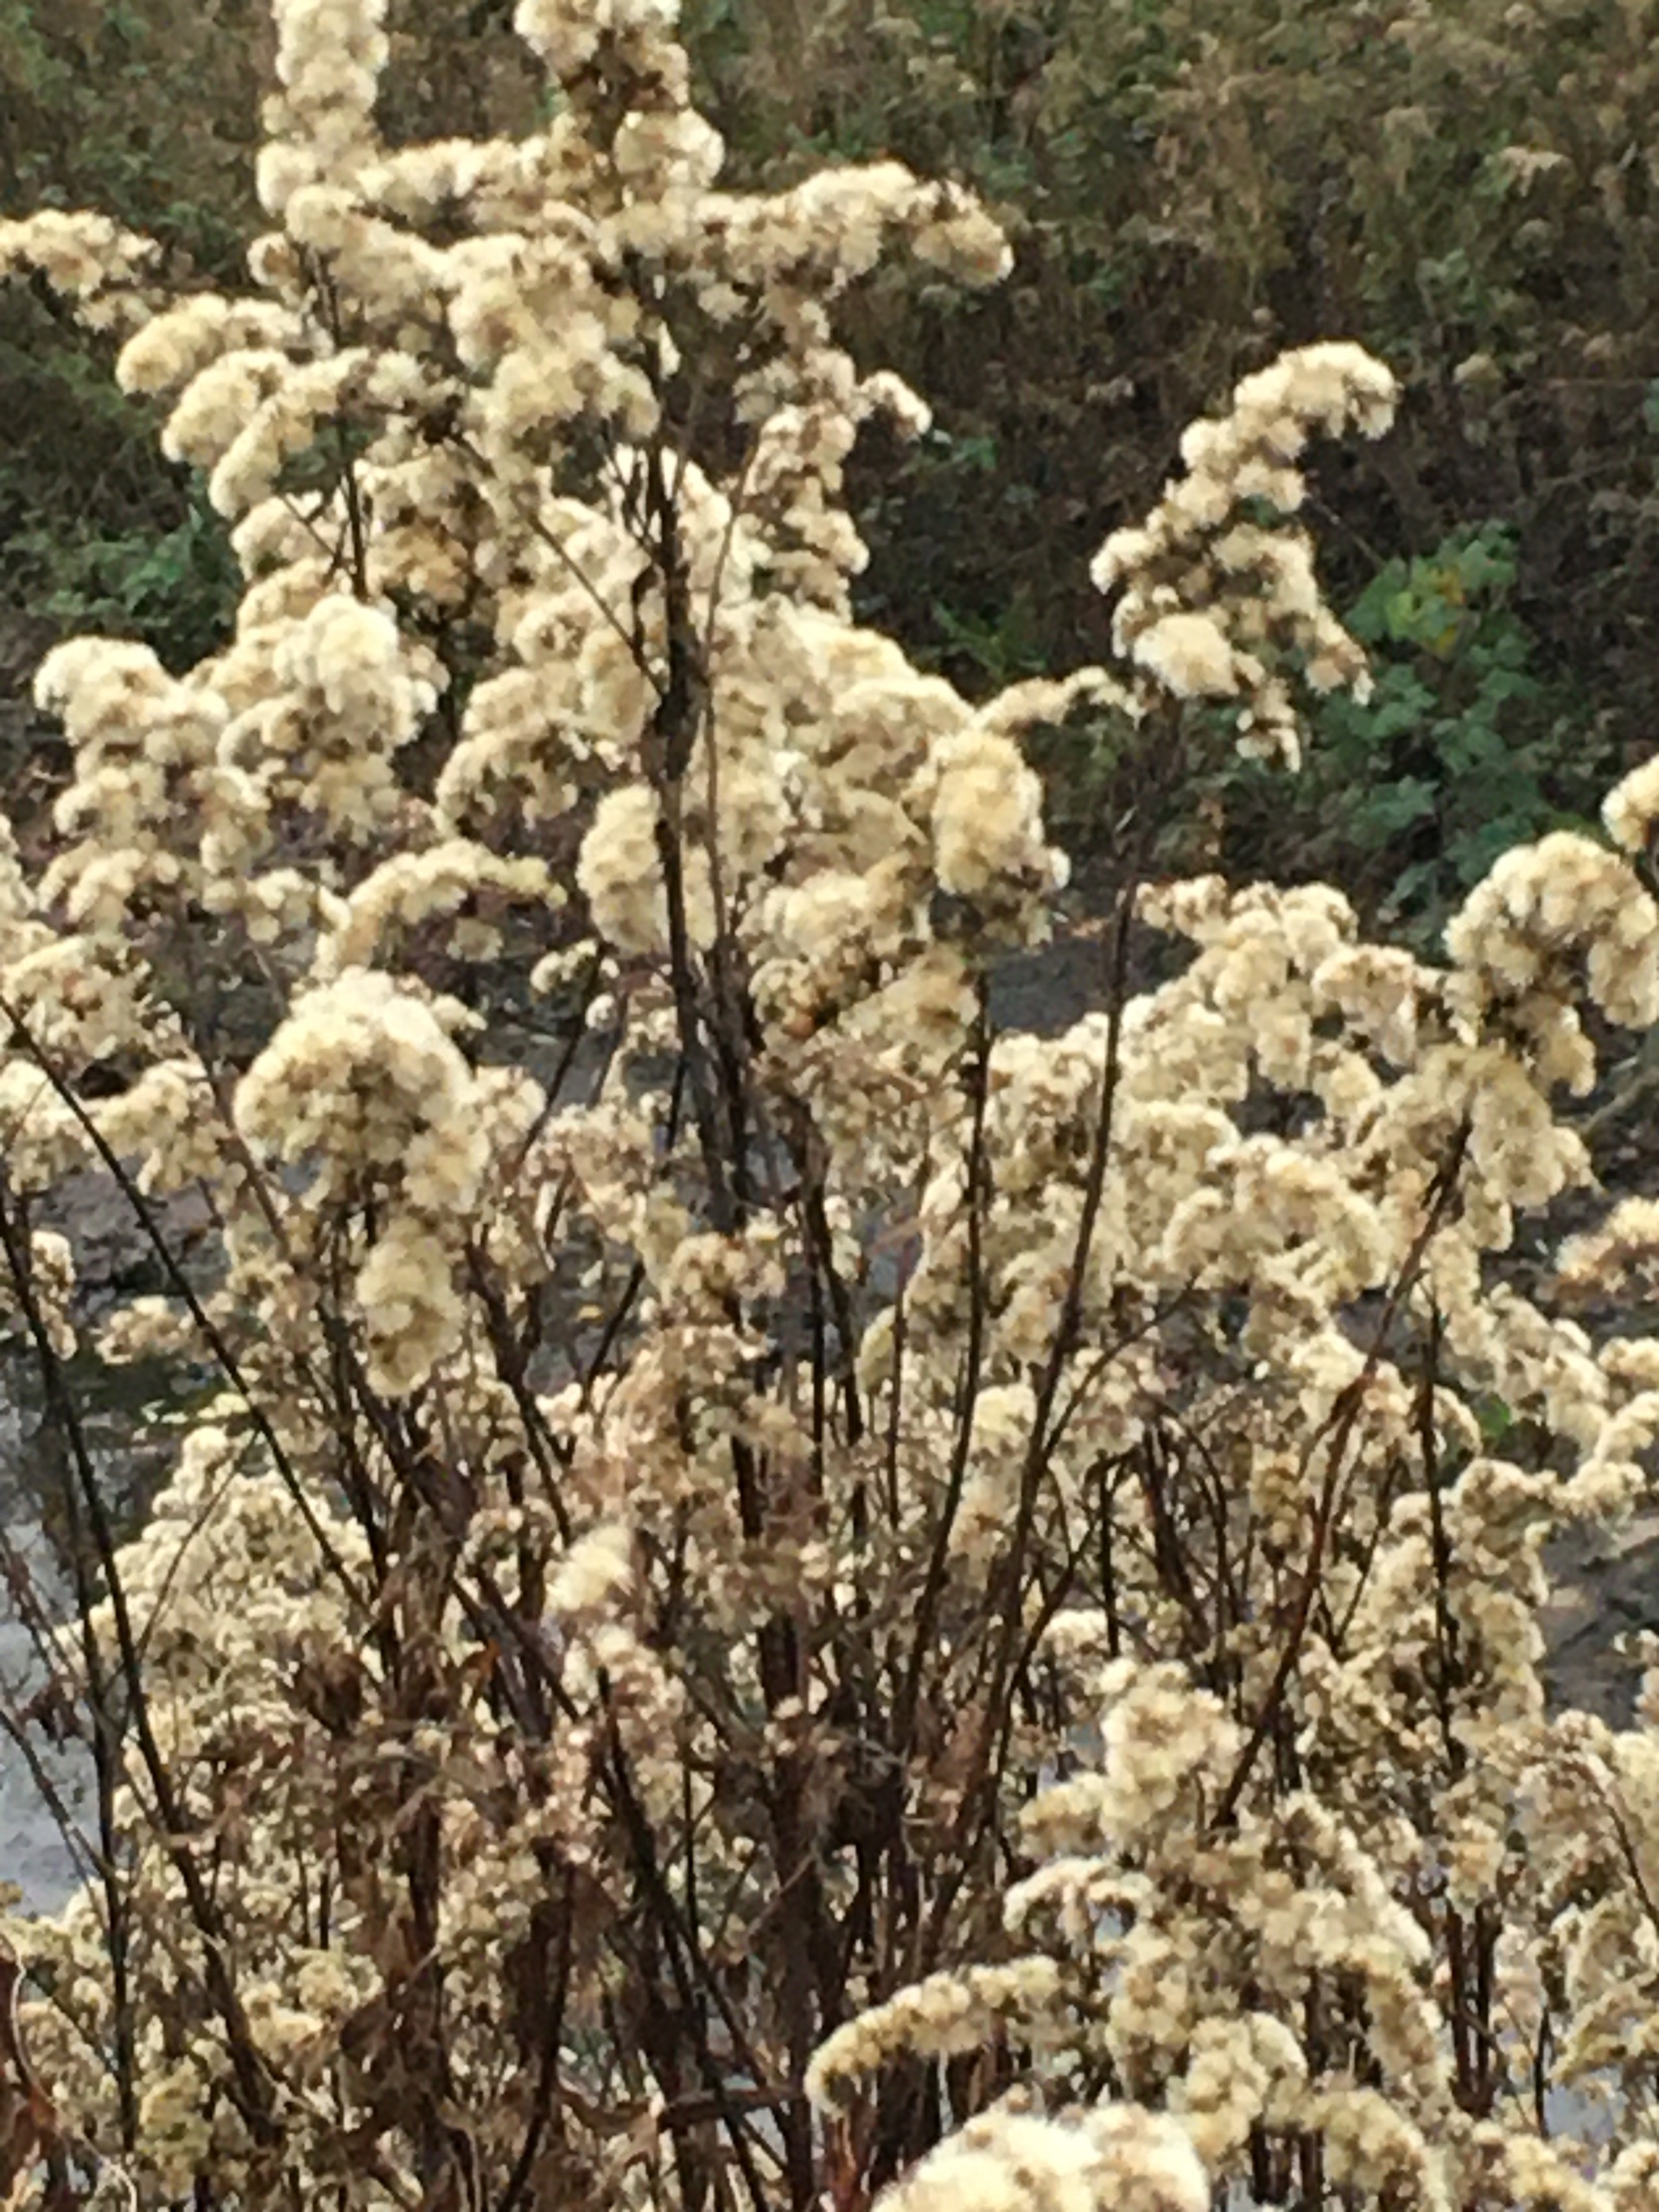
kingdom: Plantae
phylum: Tracheophyta
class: Magnoliopsida
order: Asterales
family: Asteraceae
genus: Solidago
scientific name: Solidago
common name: Gyldenrisslægten
